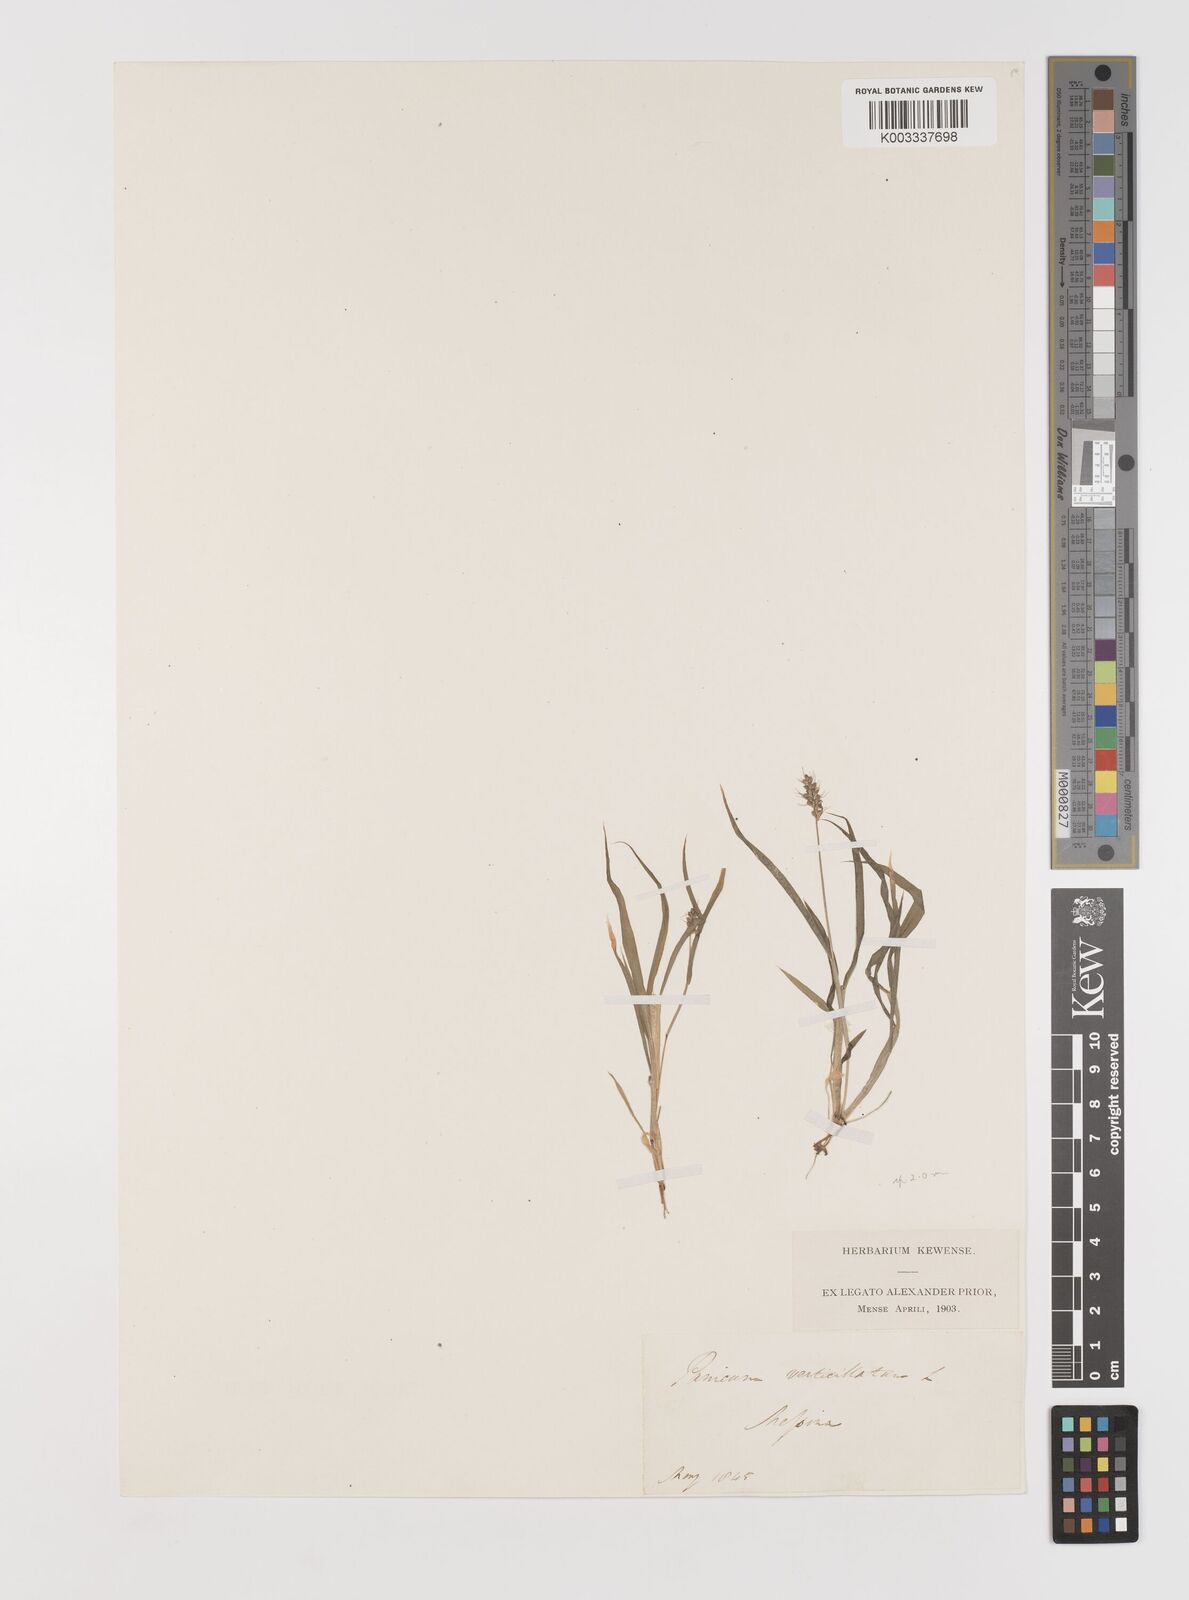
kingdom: Plantae
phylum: Tracheophyta
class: Liliopsida
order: Poales
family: Poaceae
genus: Setaria
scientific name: Setaria verticillata
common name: Hooked bristlegrass
